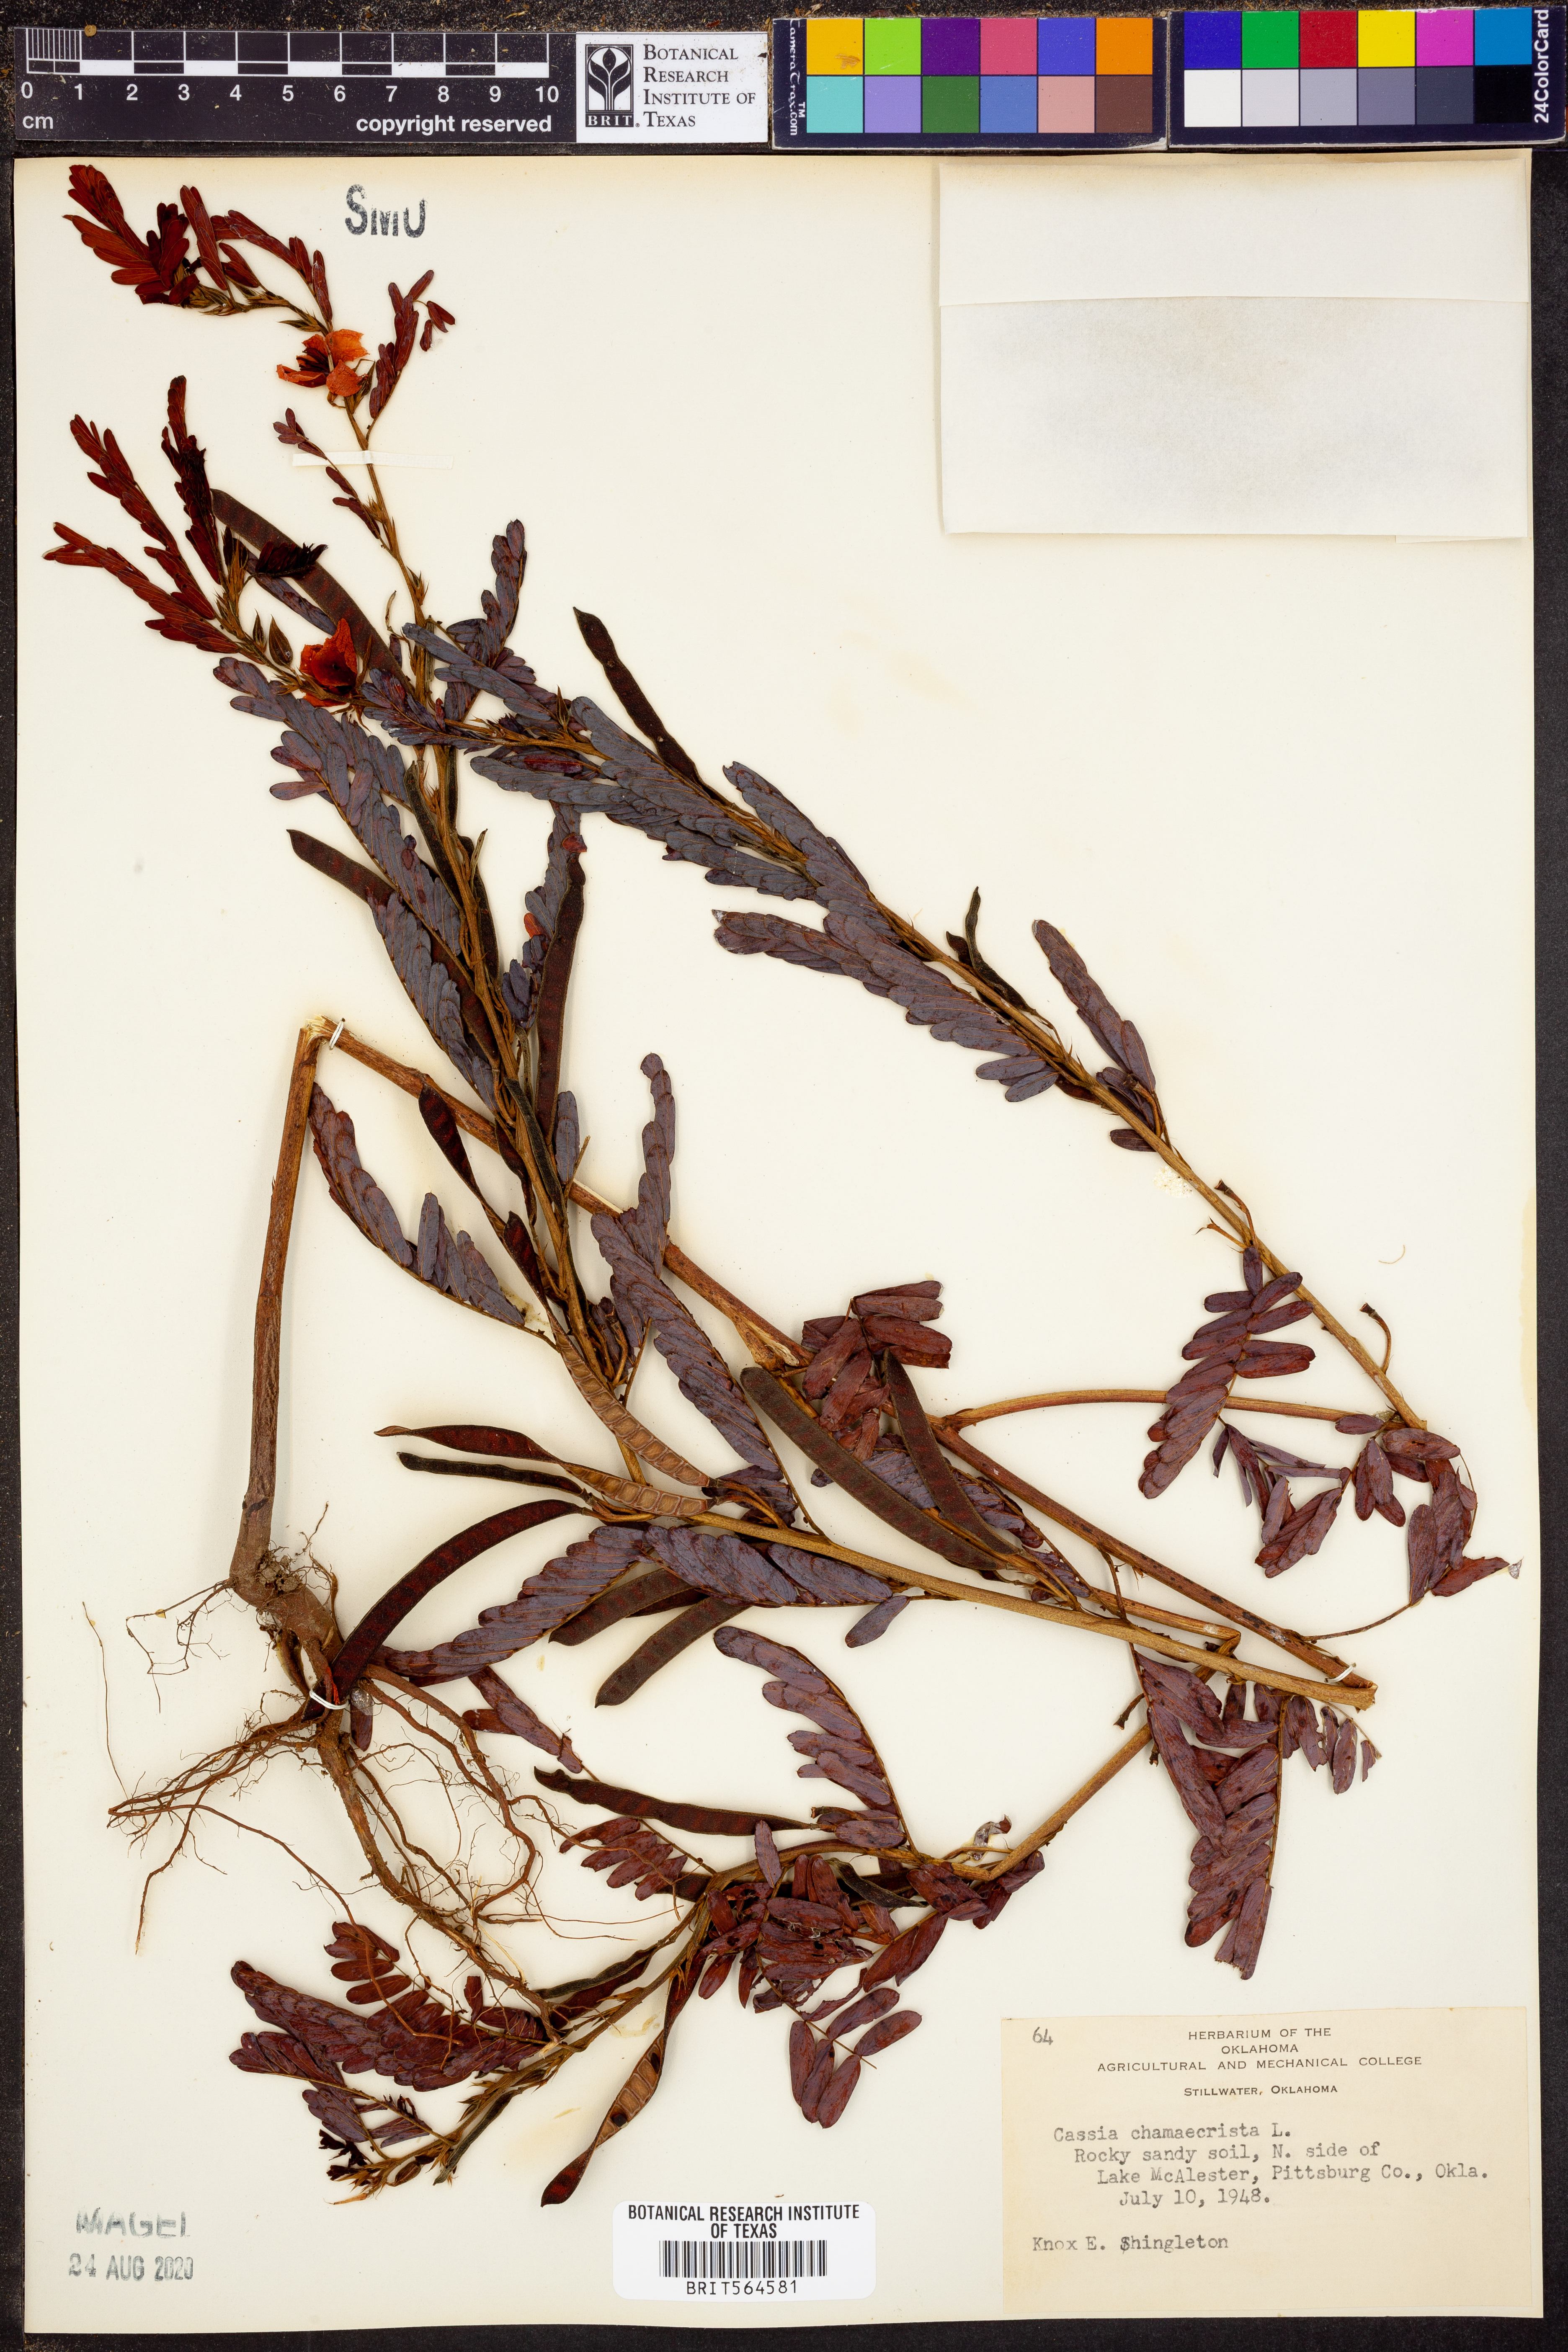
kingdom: Plantae
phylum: Tracheophyta
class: Magnoliopsida
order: Fabales
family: Fabaceae
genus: Chamaecrista
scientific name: Chamaecrista fasciculata
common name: Golden cassia
